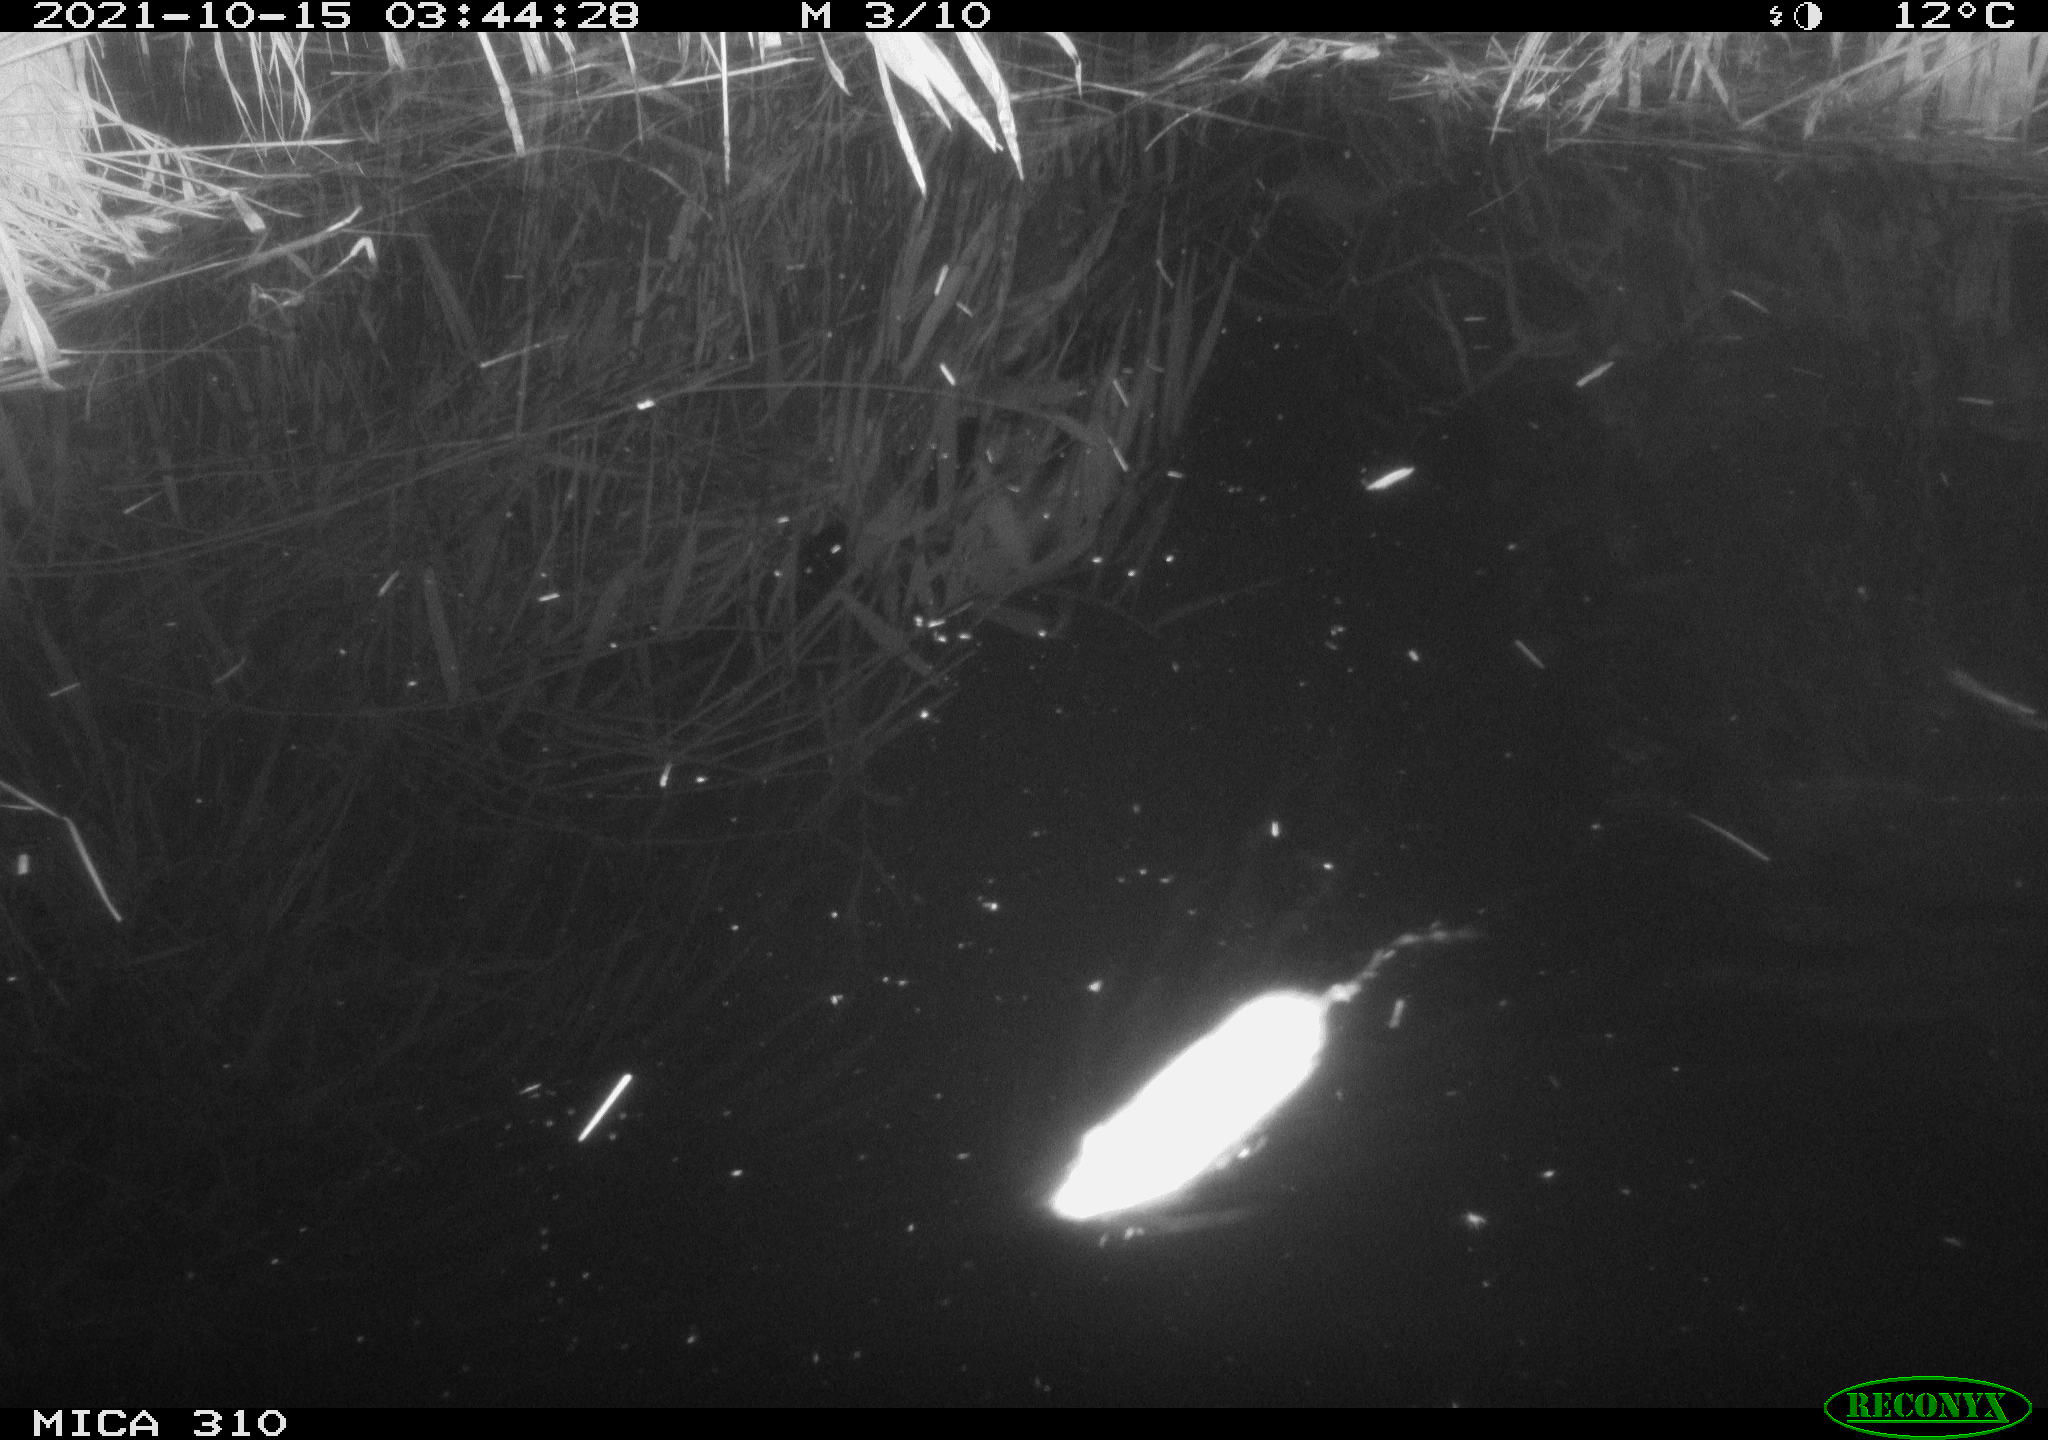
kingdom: Animalia
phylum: Chordata
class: Mammalia
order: Rodentia
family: Muridae
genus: Rattus
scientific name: Rattus norvegicus
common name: Brown rat
